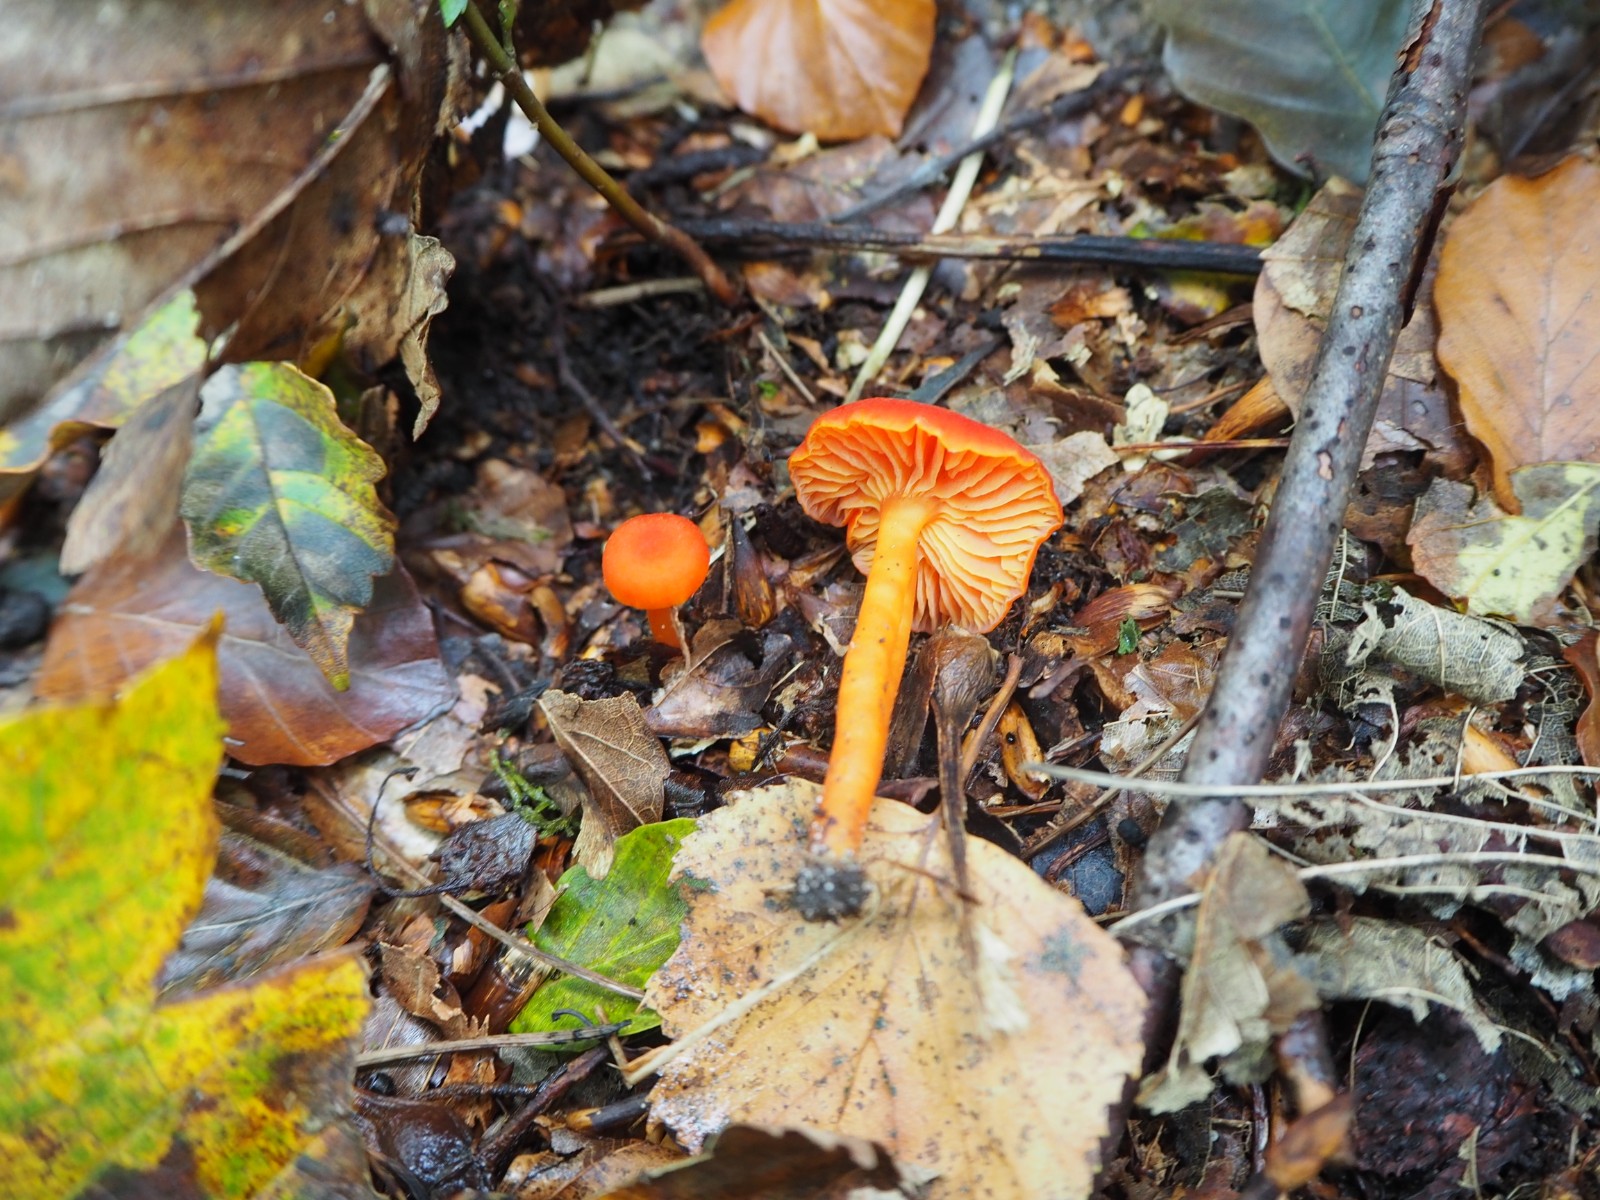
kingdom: Fungi
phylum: Basidiomycota
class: Agaricomycetes
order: Agaricales
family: Hygrophoraceae
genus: Hygrocybe
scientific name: Hygrocybe miniata
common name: mønje-vokshat
